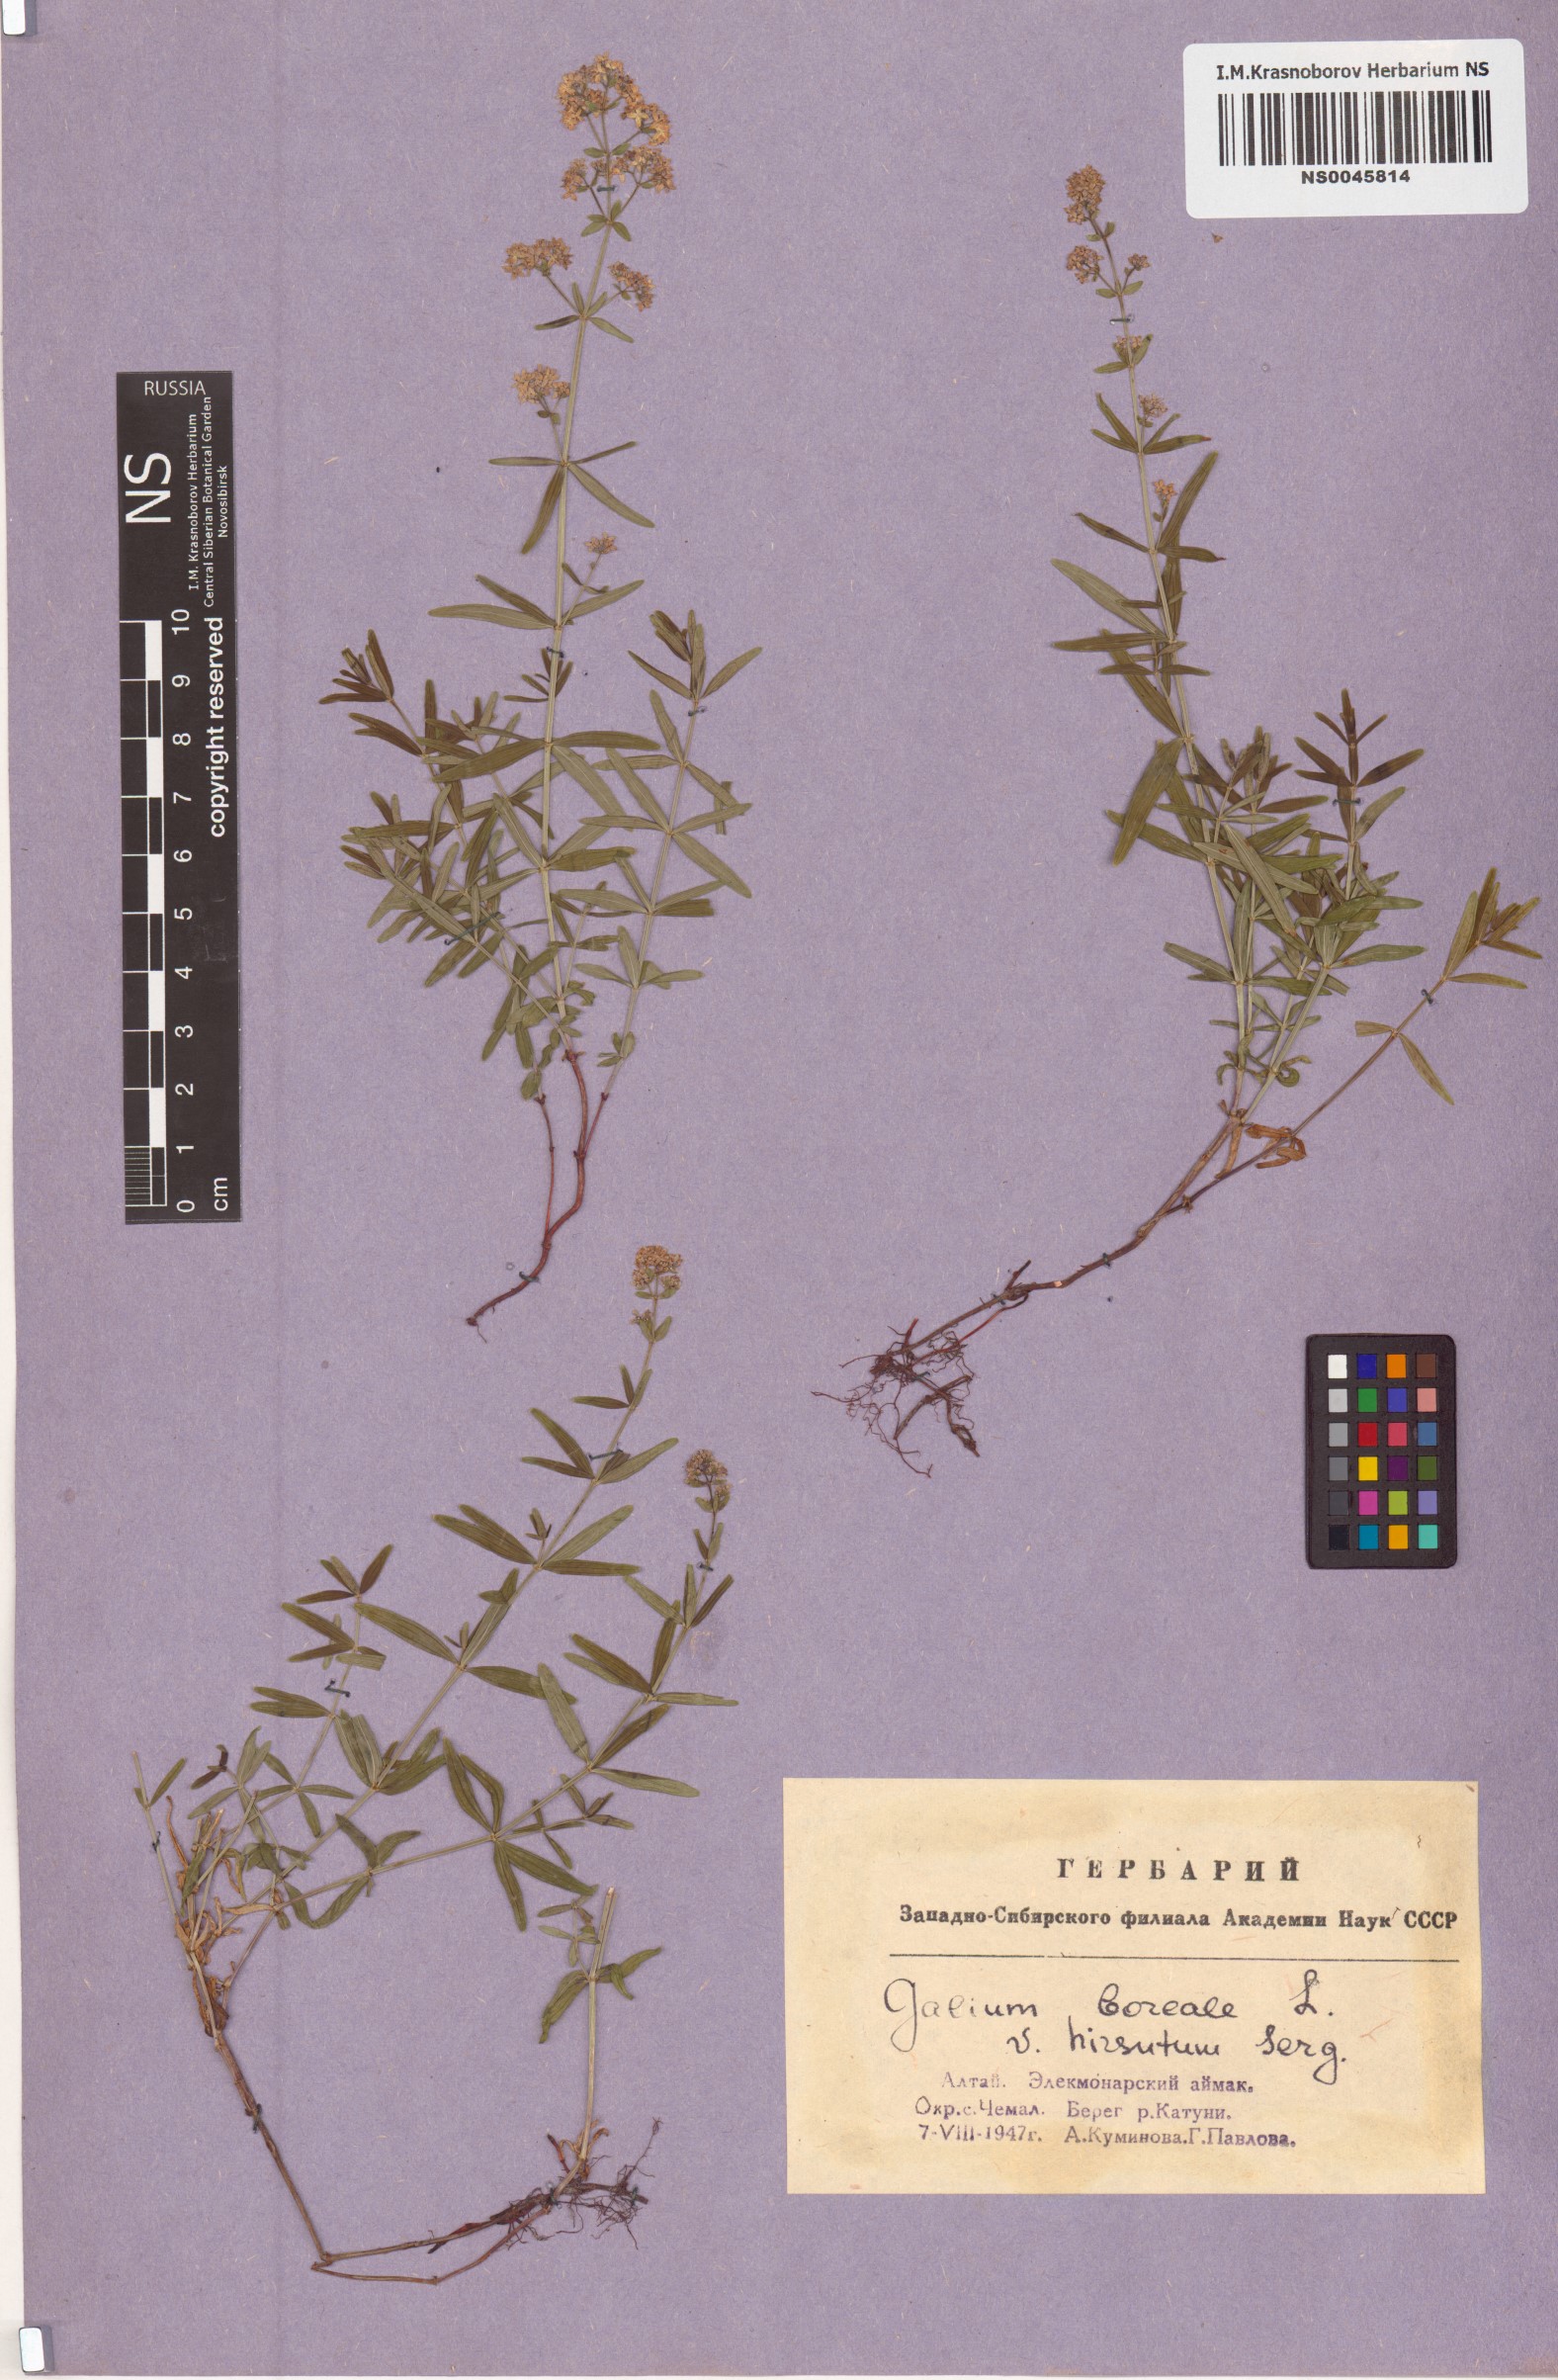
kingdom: Plantae
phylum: Tracheophyta
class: Magnoliopsida
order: Gentianales
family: Rubiaceae
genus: Galium
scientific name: Galium boreale
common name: Northern bedstraw
